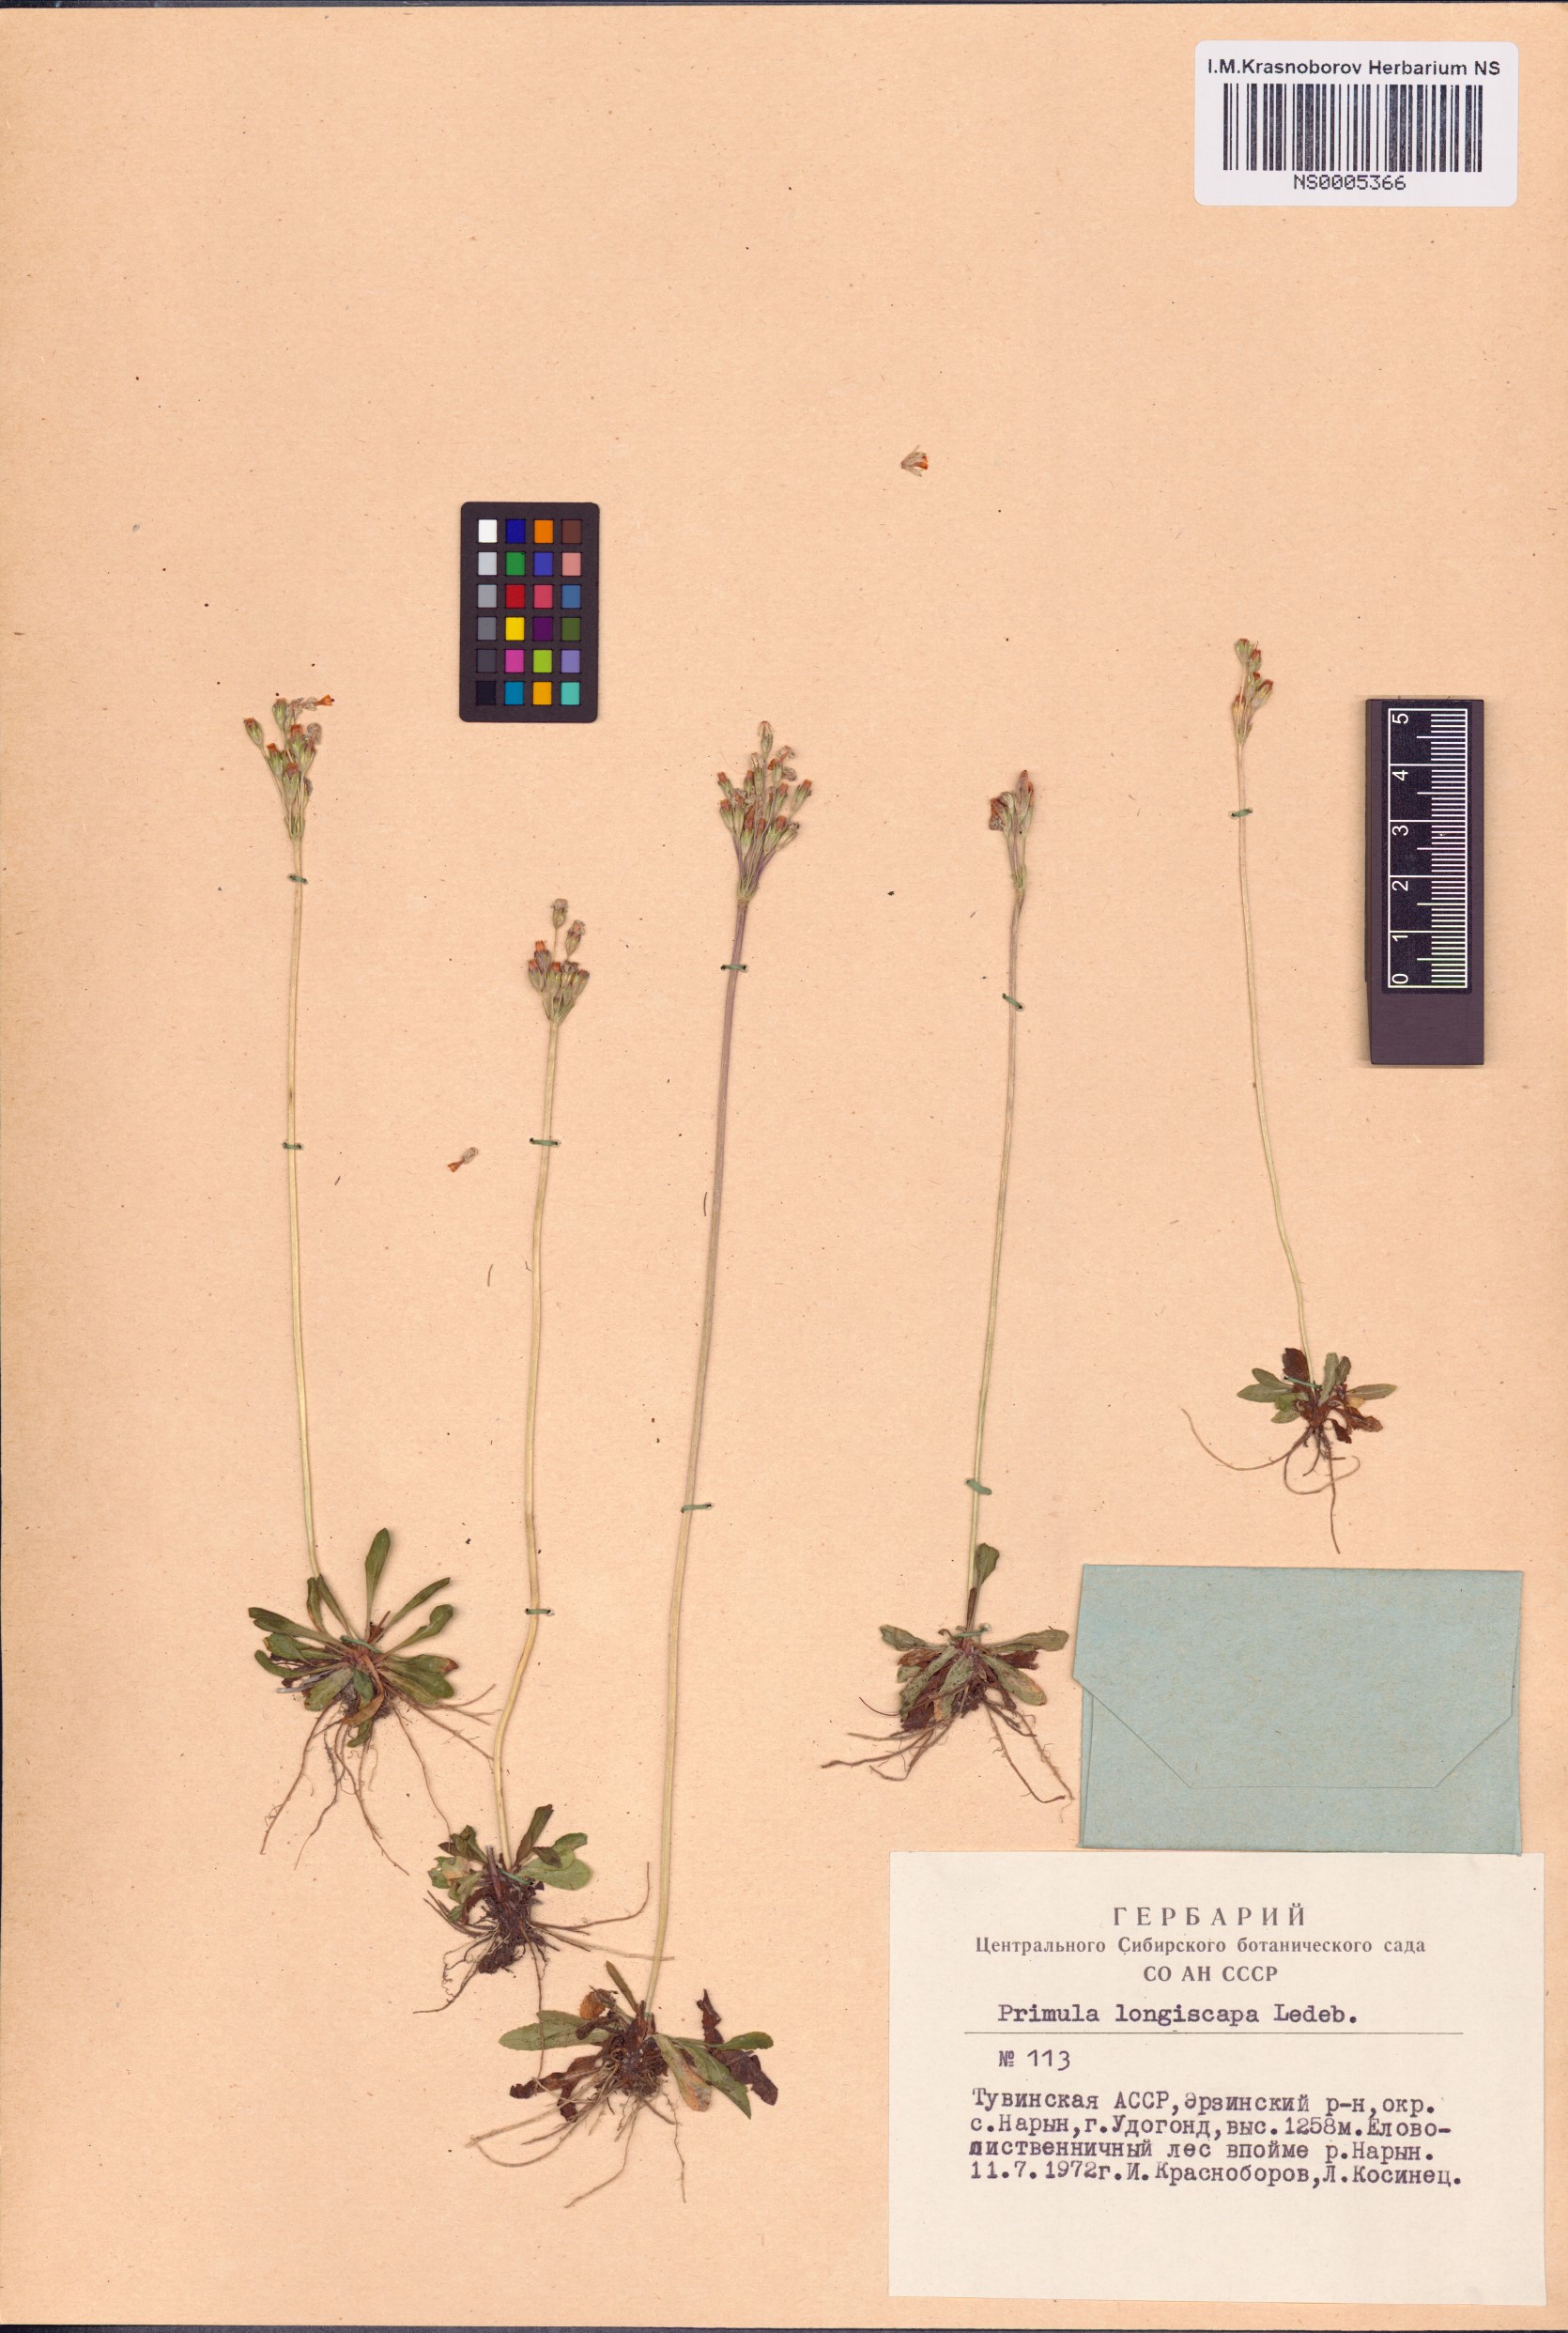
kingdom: Plantae
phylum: Tracheophyta
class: Magnoliopsida
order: Ericales
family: Primulaceae
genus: Primula
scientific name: Primula longiscapa
